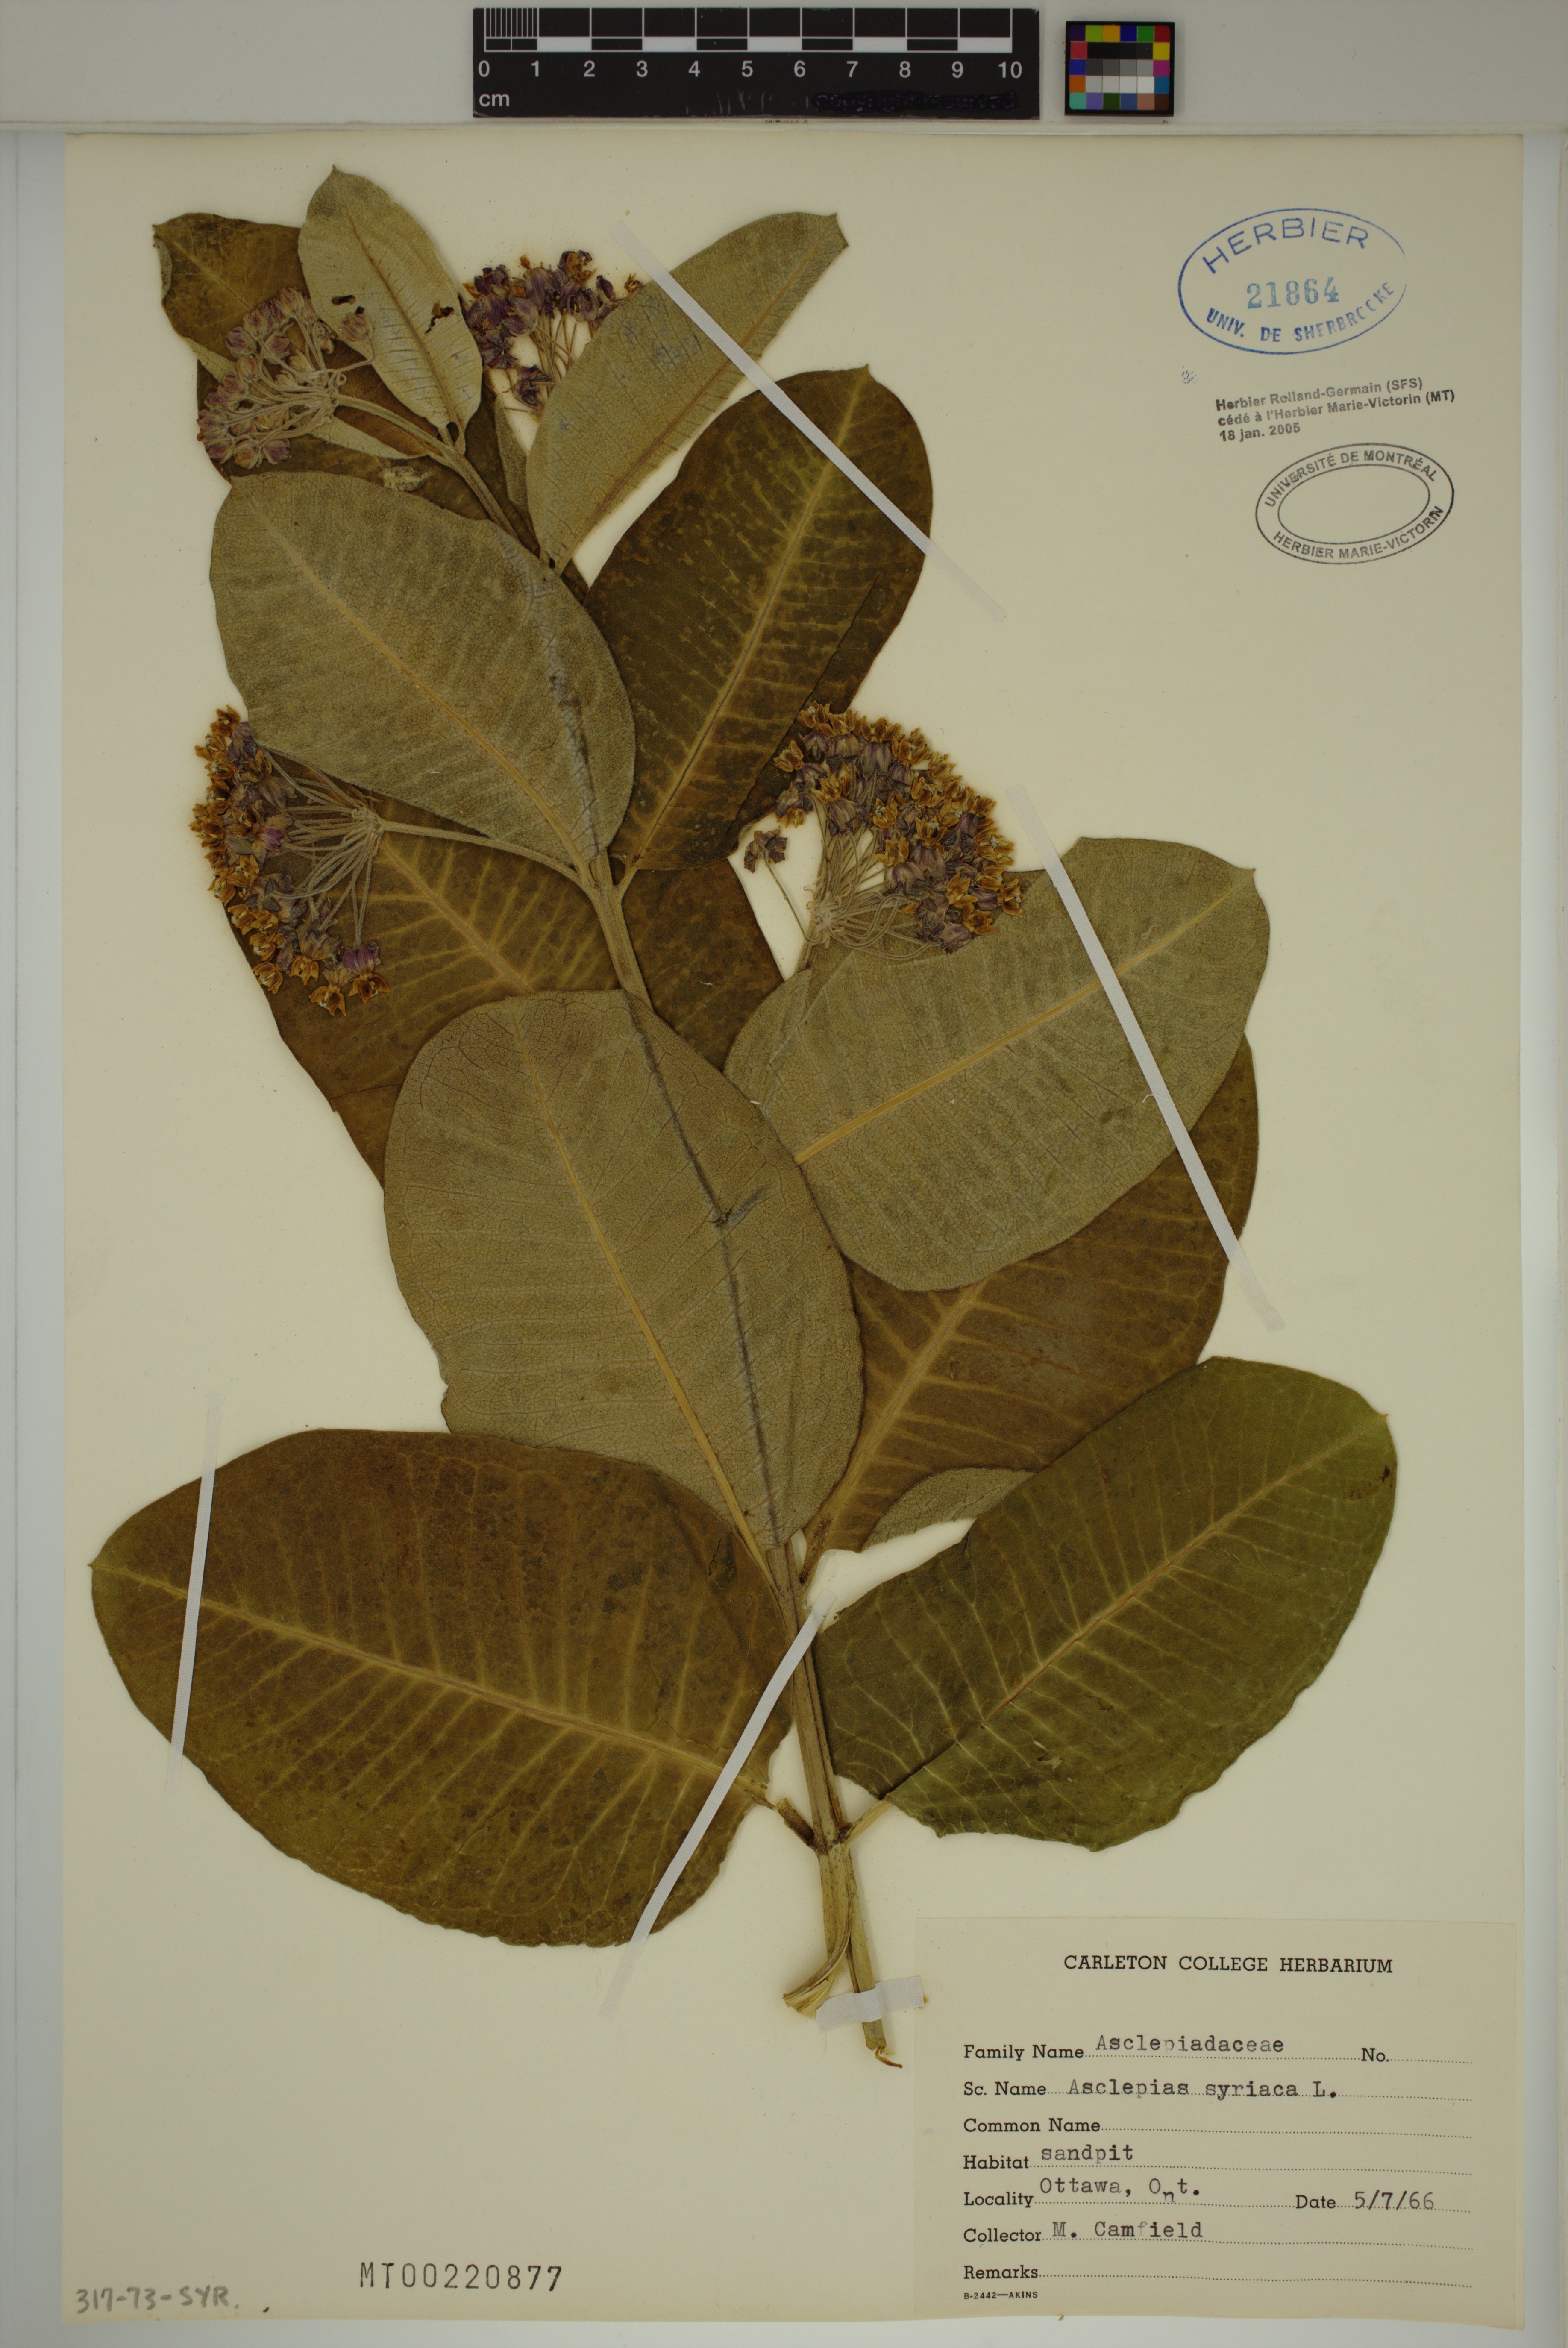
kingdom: Plantae
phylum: Tracheophyta
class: Magnoliopsida
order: Gentianales
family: Apocynaceae
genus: Asclepias
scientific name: Asclepias syriaca
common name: Common milkweed
